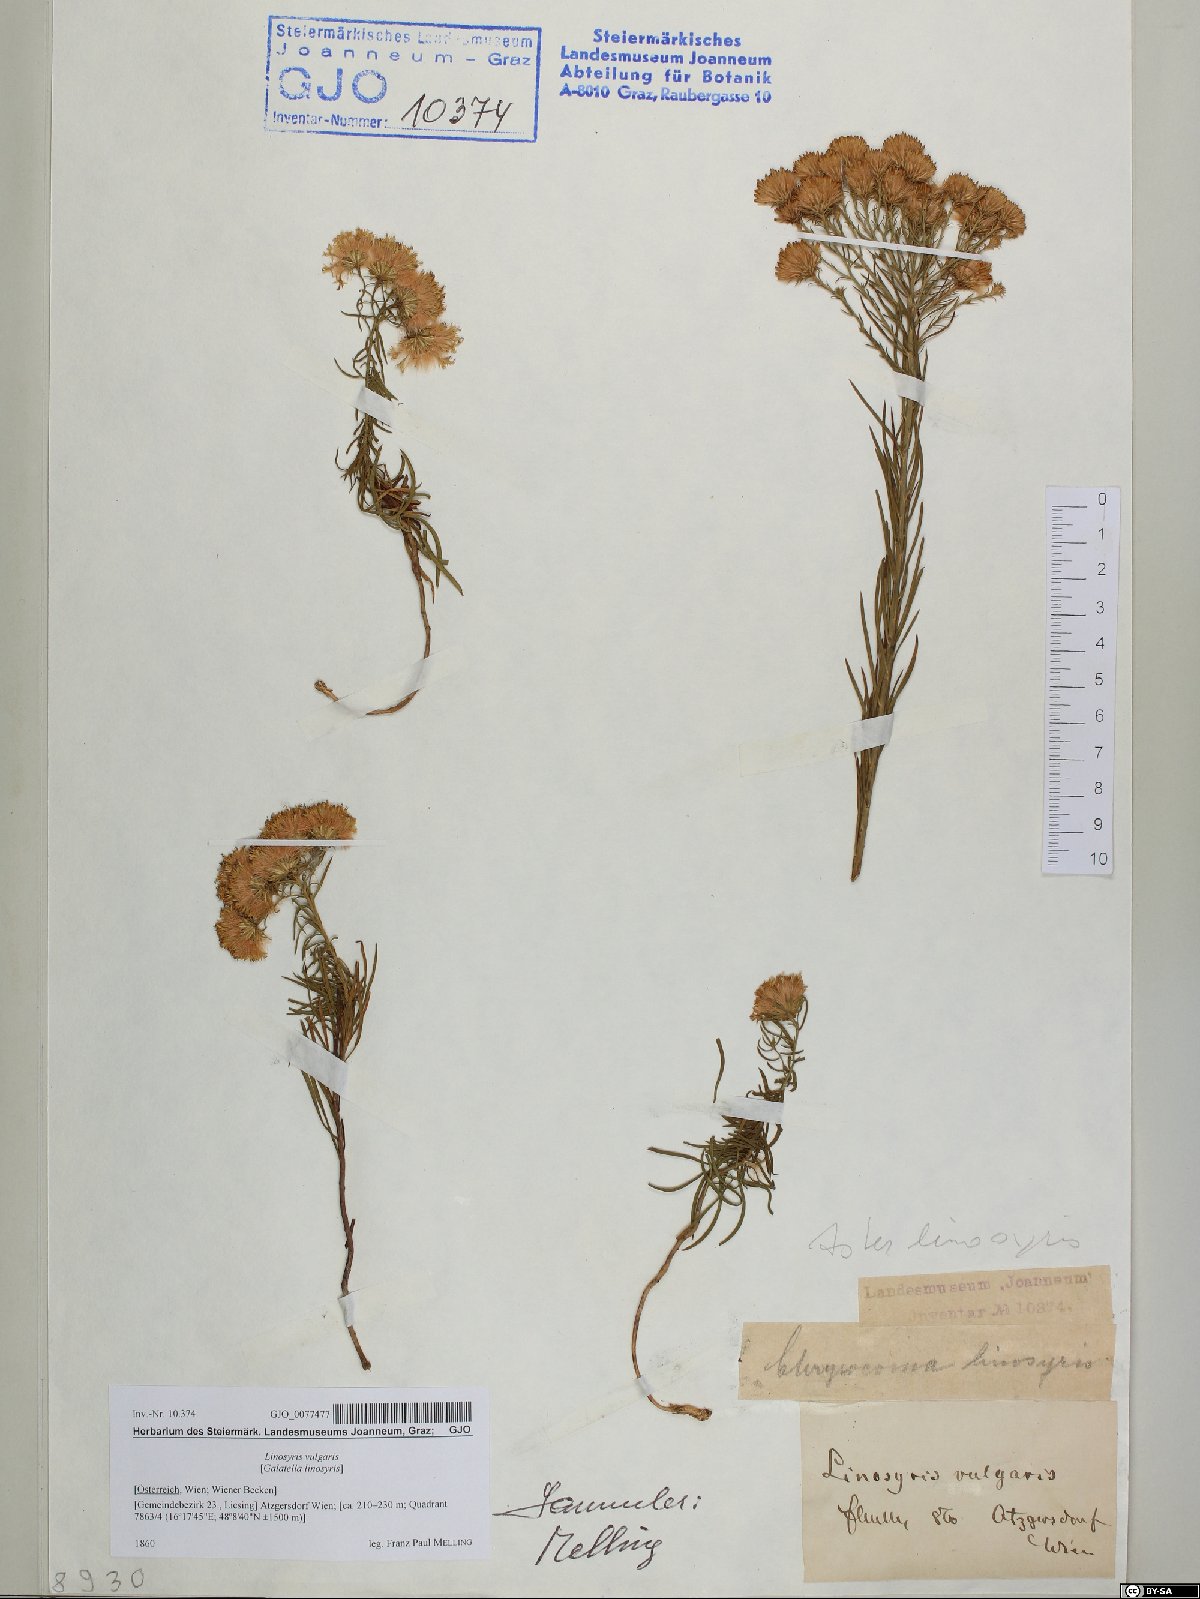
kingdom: Plantae
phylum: Tracheophyta
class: Magnoliopsida
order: Asterales
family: Asteraceae
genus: Galatella
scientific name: Galatella linosyris
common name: Goldilocks aster
